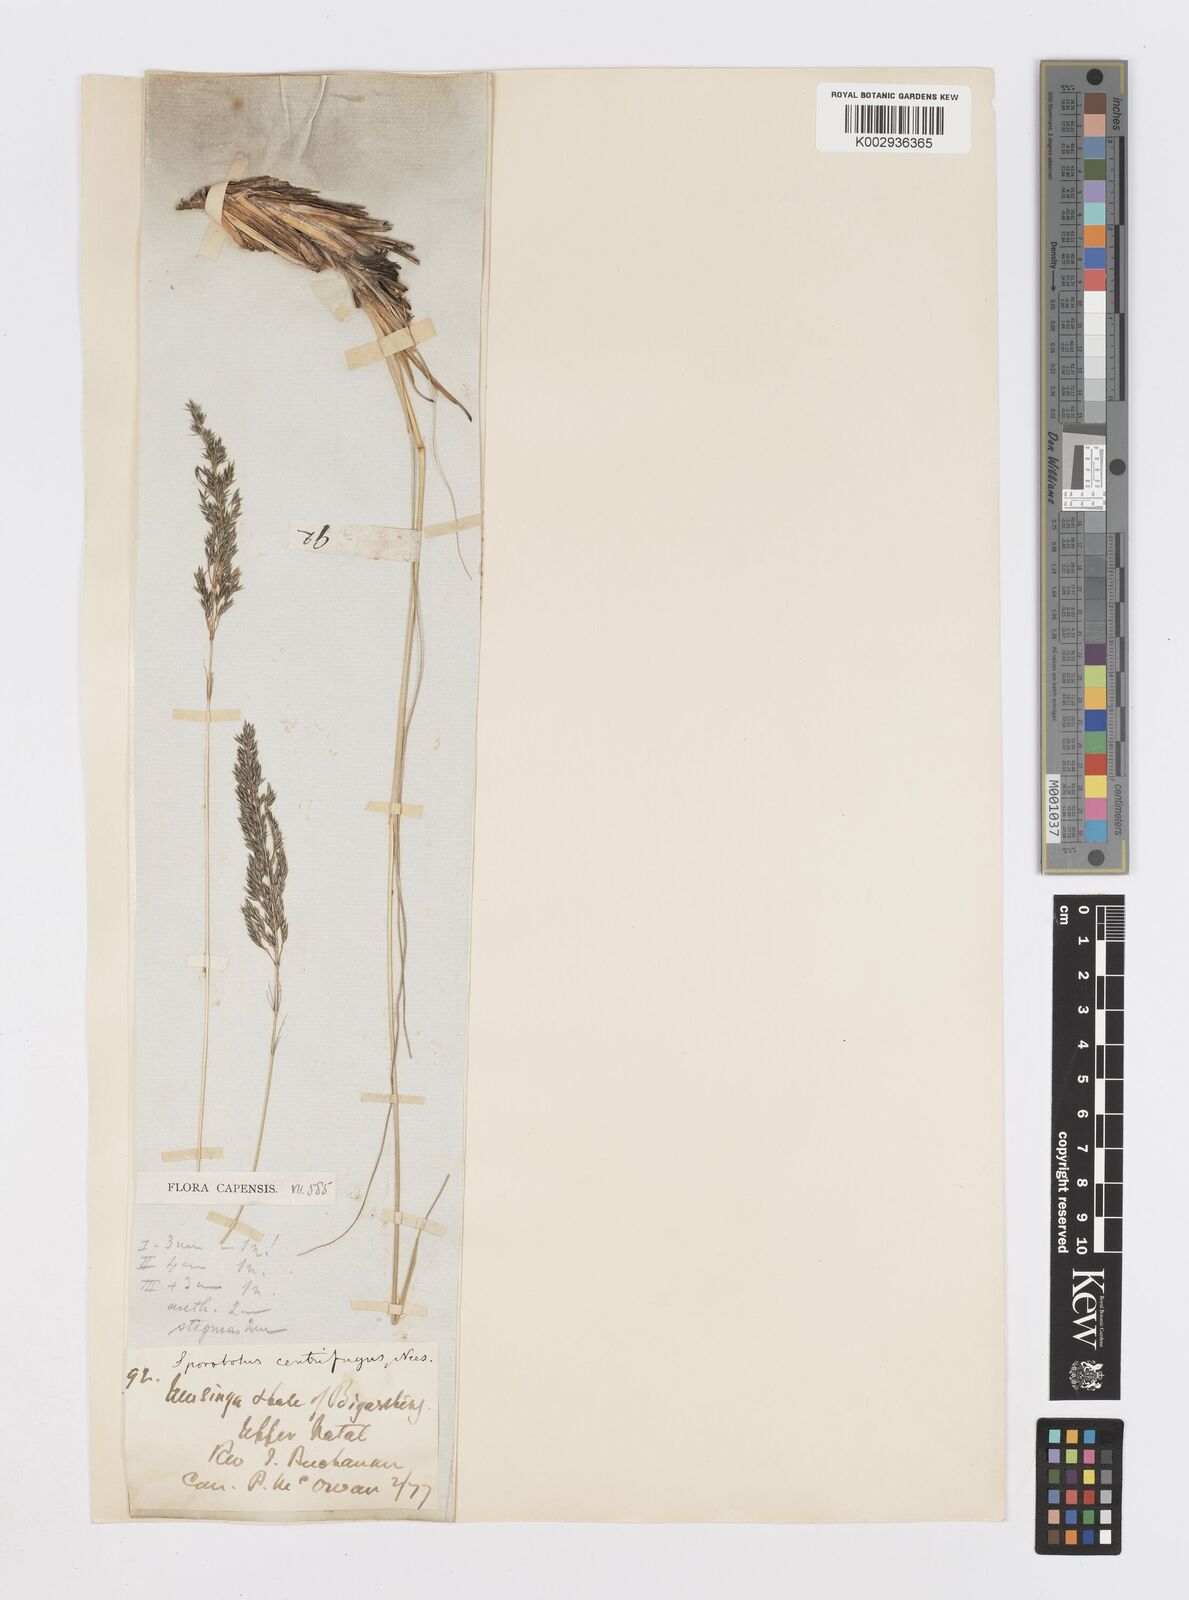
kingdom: Plantae
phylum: Tracheophyta
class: Liliopsida
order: Poales
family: Poaceae
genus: Sporobolus
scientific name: Sporobolus centrifugus
